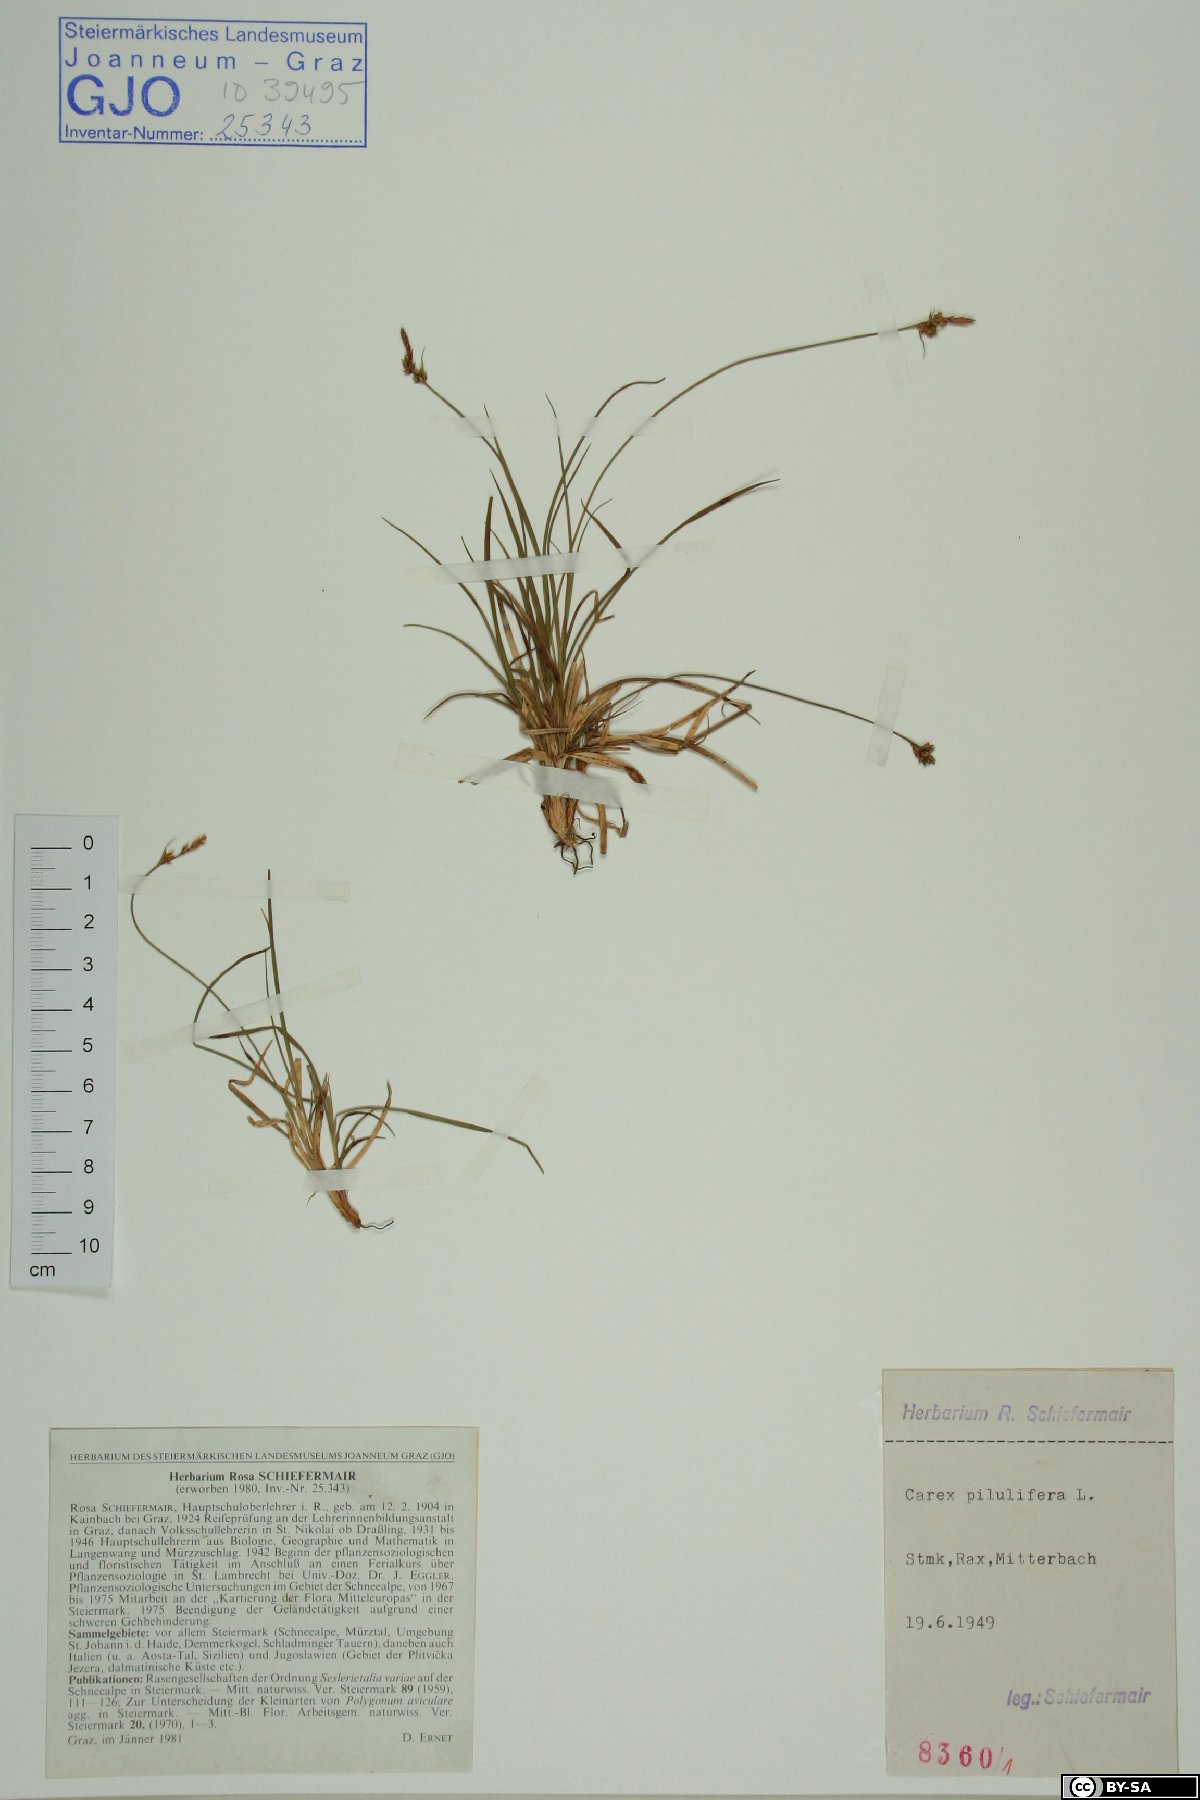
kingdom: Plantae
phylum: Tracheophyta
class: Liliopsida
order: Poales
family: Cyperaceae
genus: Carex
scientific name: Carex pilulifera
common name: Pill sedge
